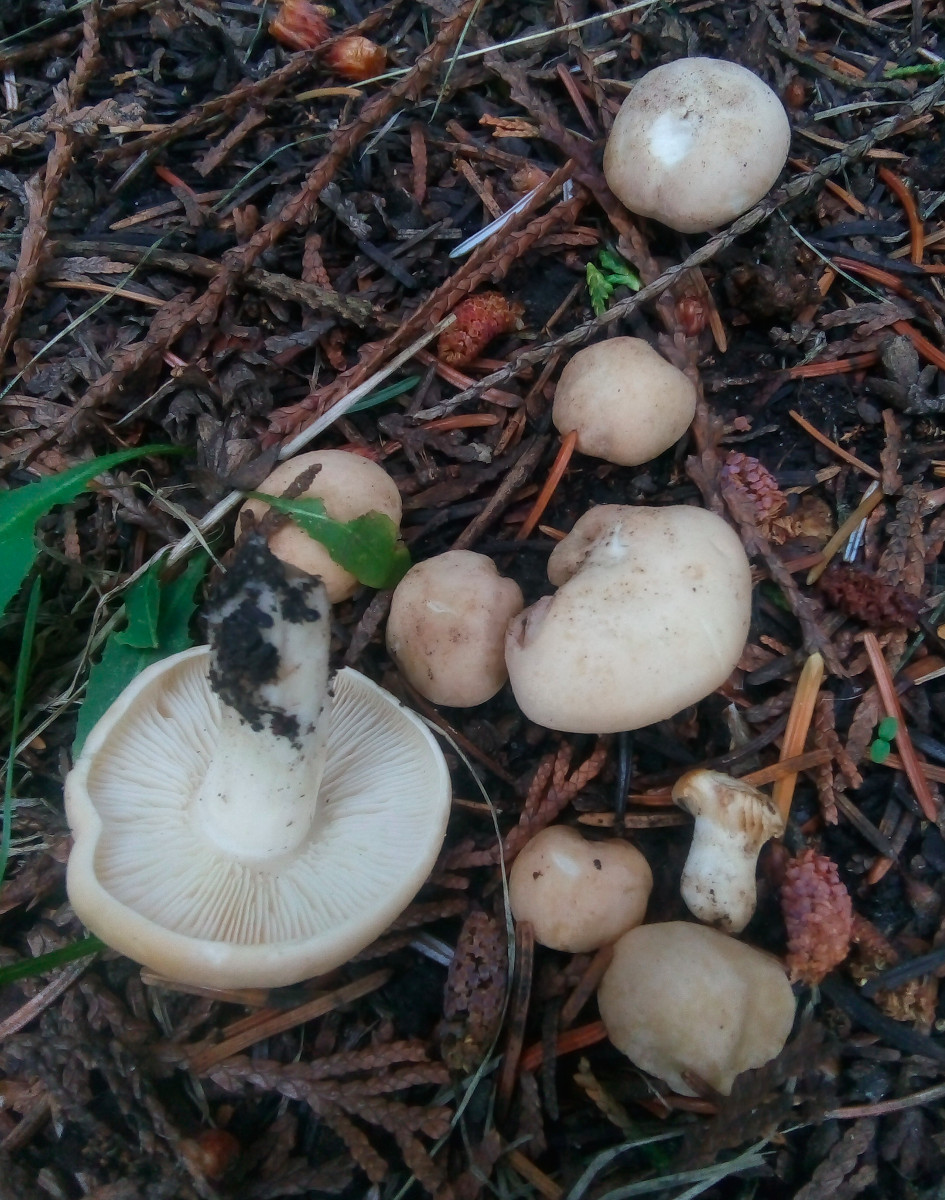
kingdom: Fungi
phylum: Basidiomycota
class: Agaricomycetes
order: Agaricales
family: Lyophyllaceae
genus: Calocybe
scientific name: Calocybe gambosa
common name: vårmusseron
